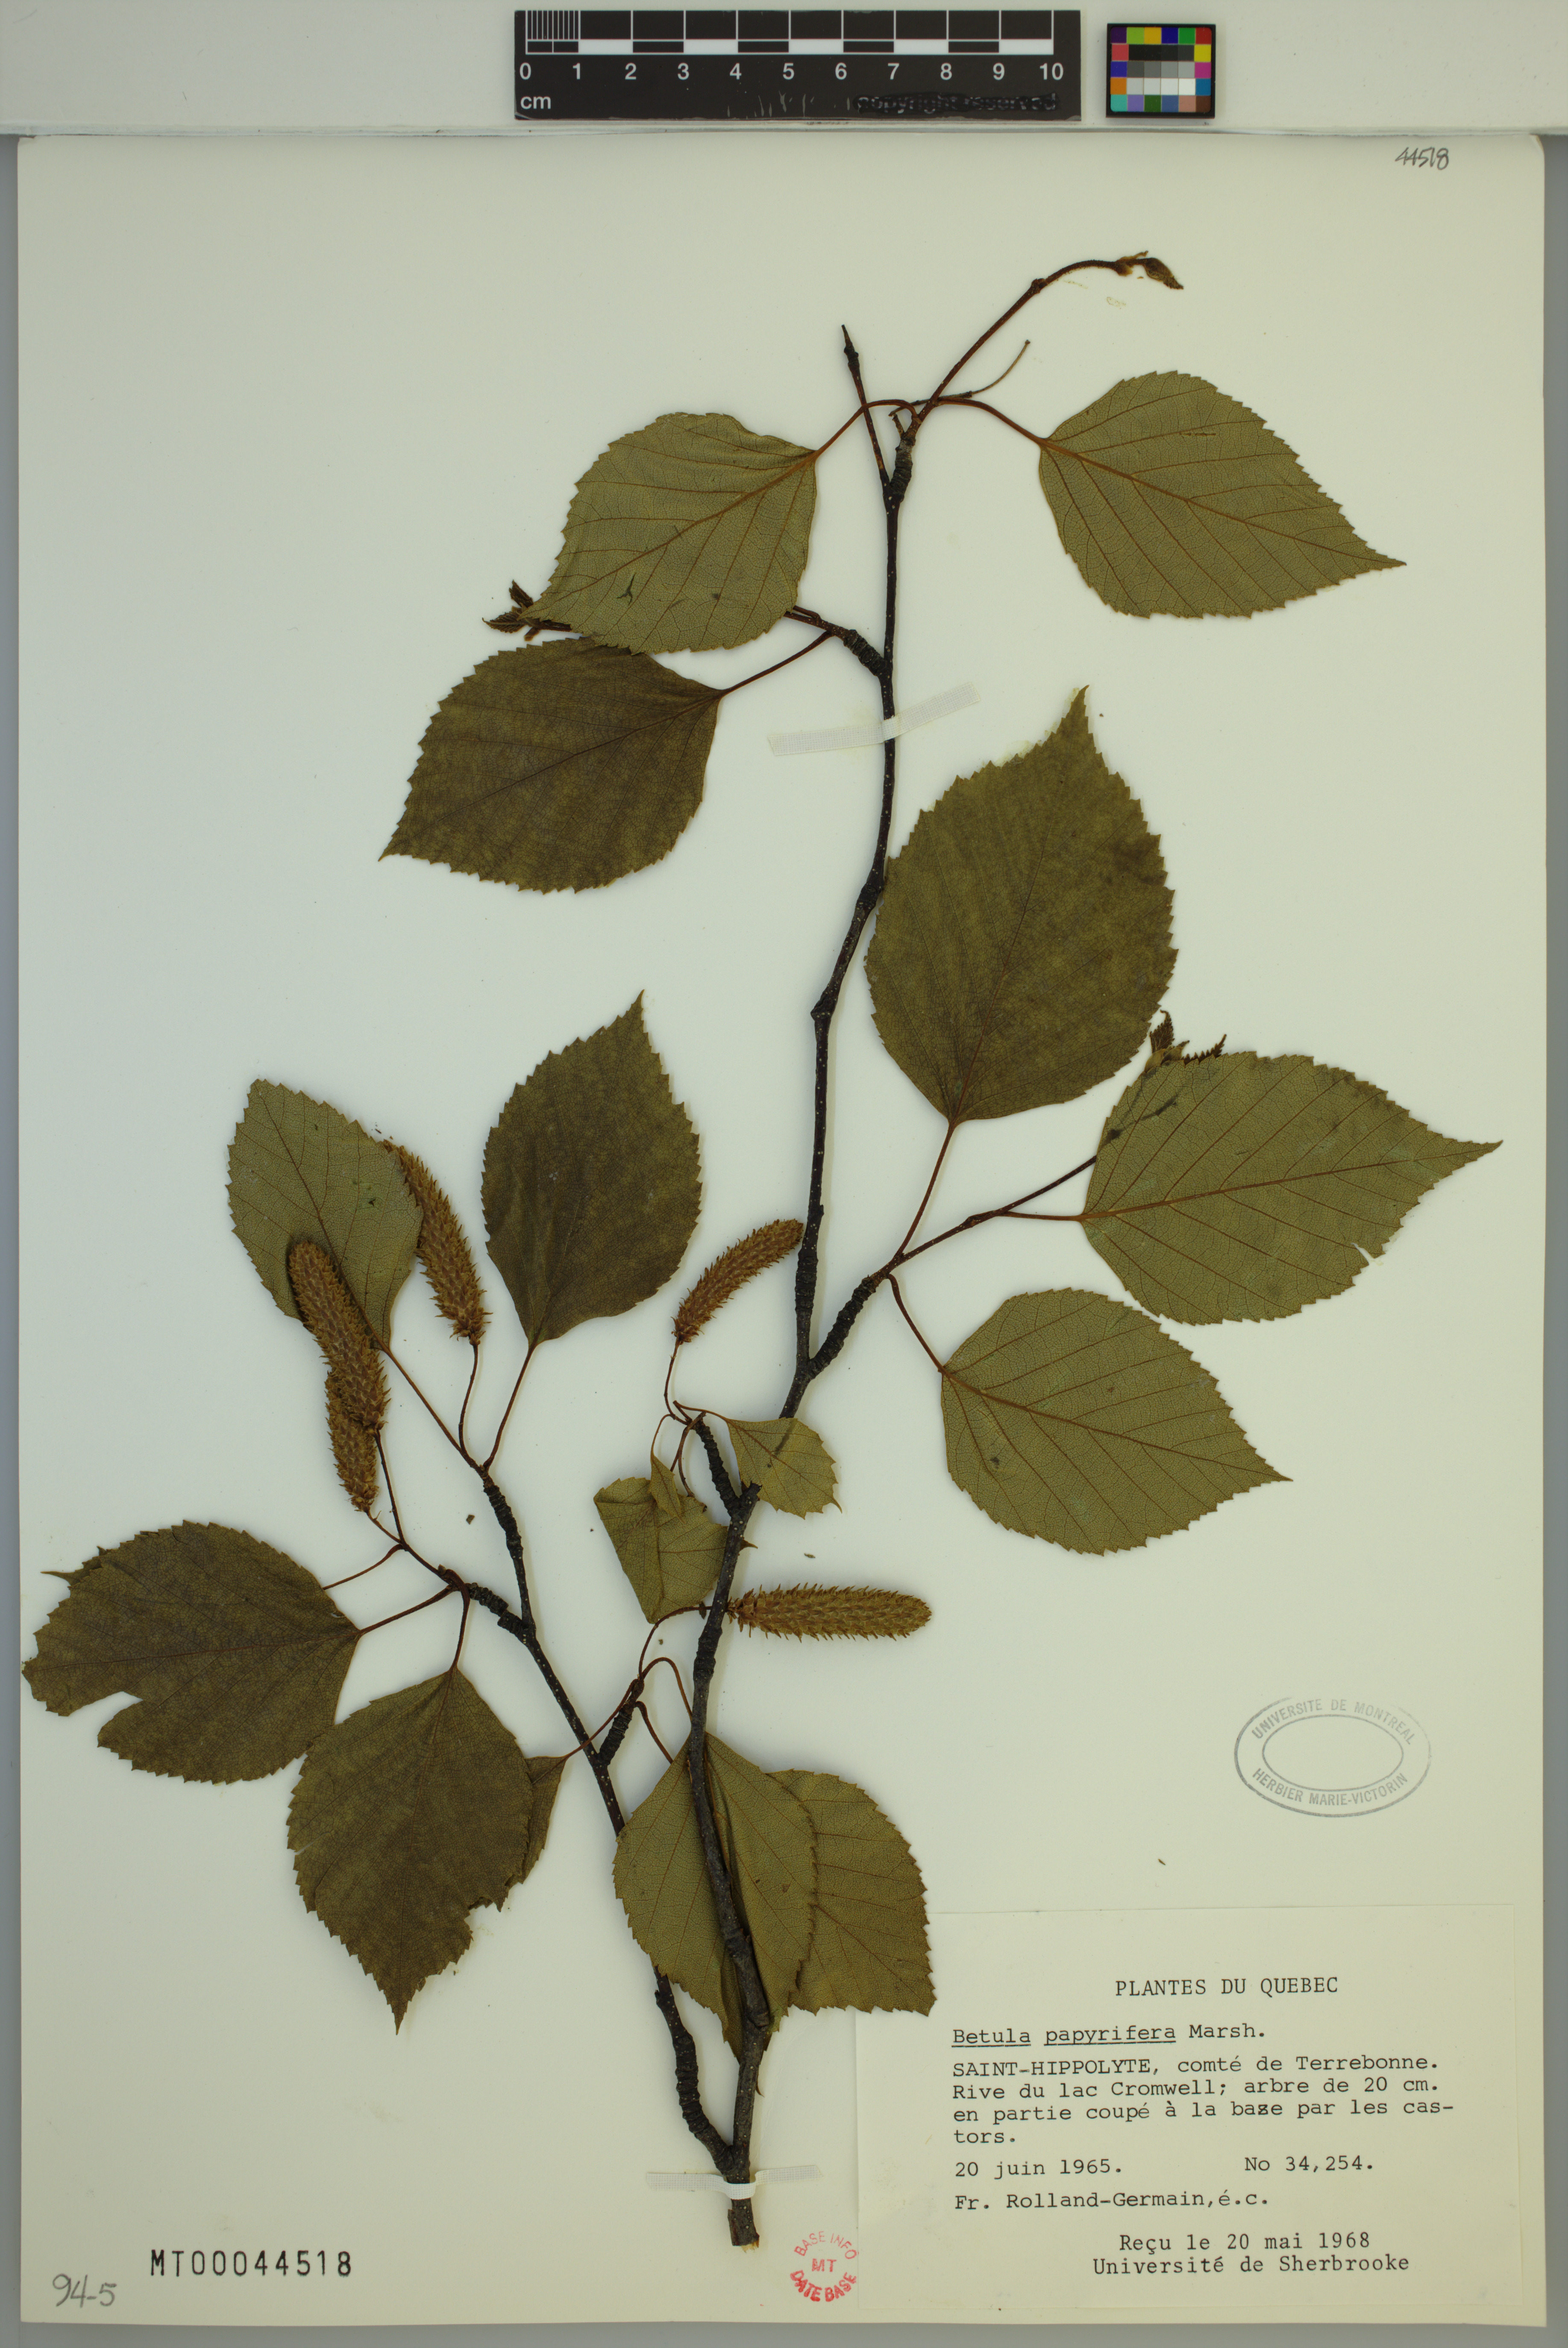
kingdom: Plantae
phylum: Tracheophyta
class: Magnoliopsida
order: Fagales
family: Betulaceae
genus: Betula
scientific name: Betula papyrifera
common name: Paper birch
